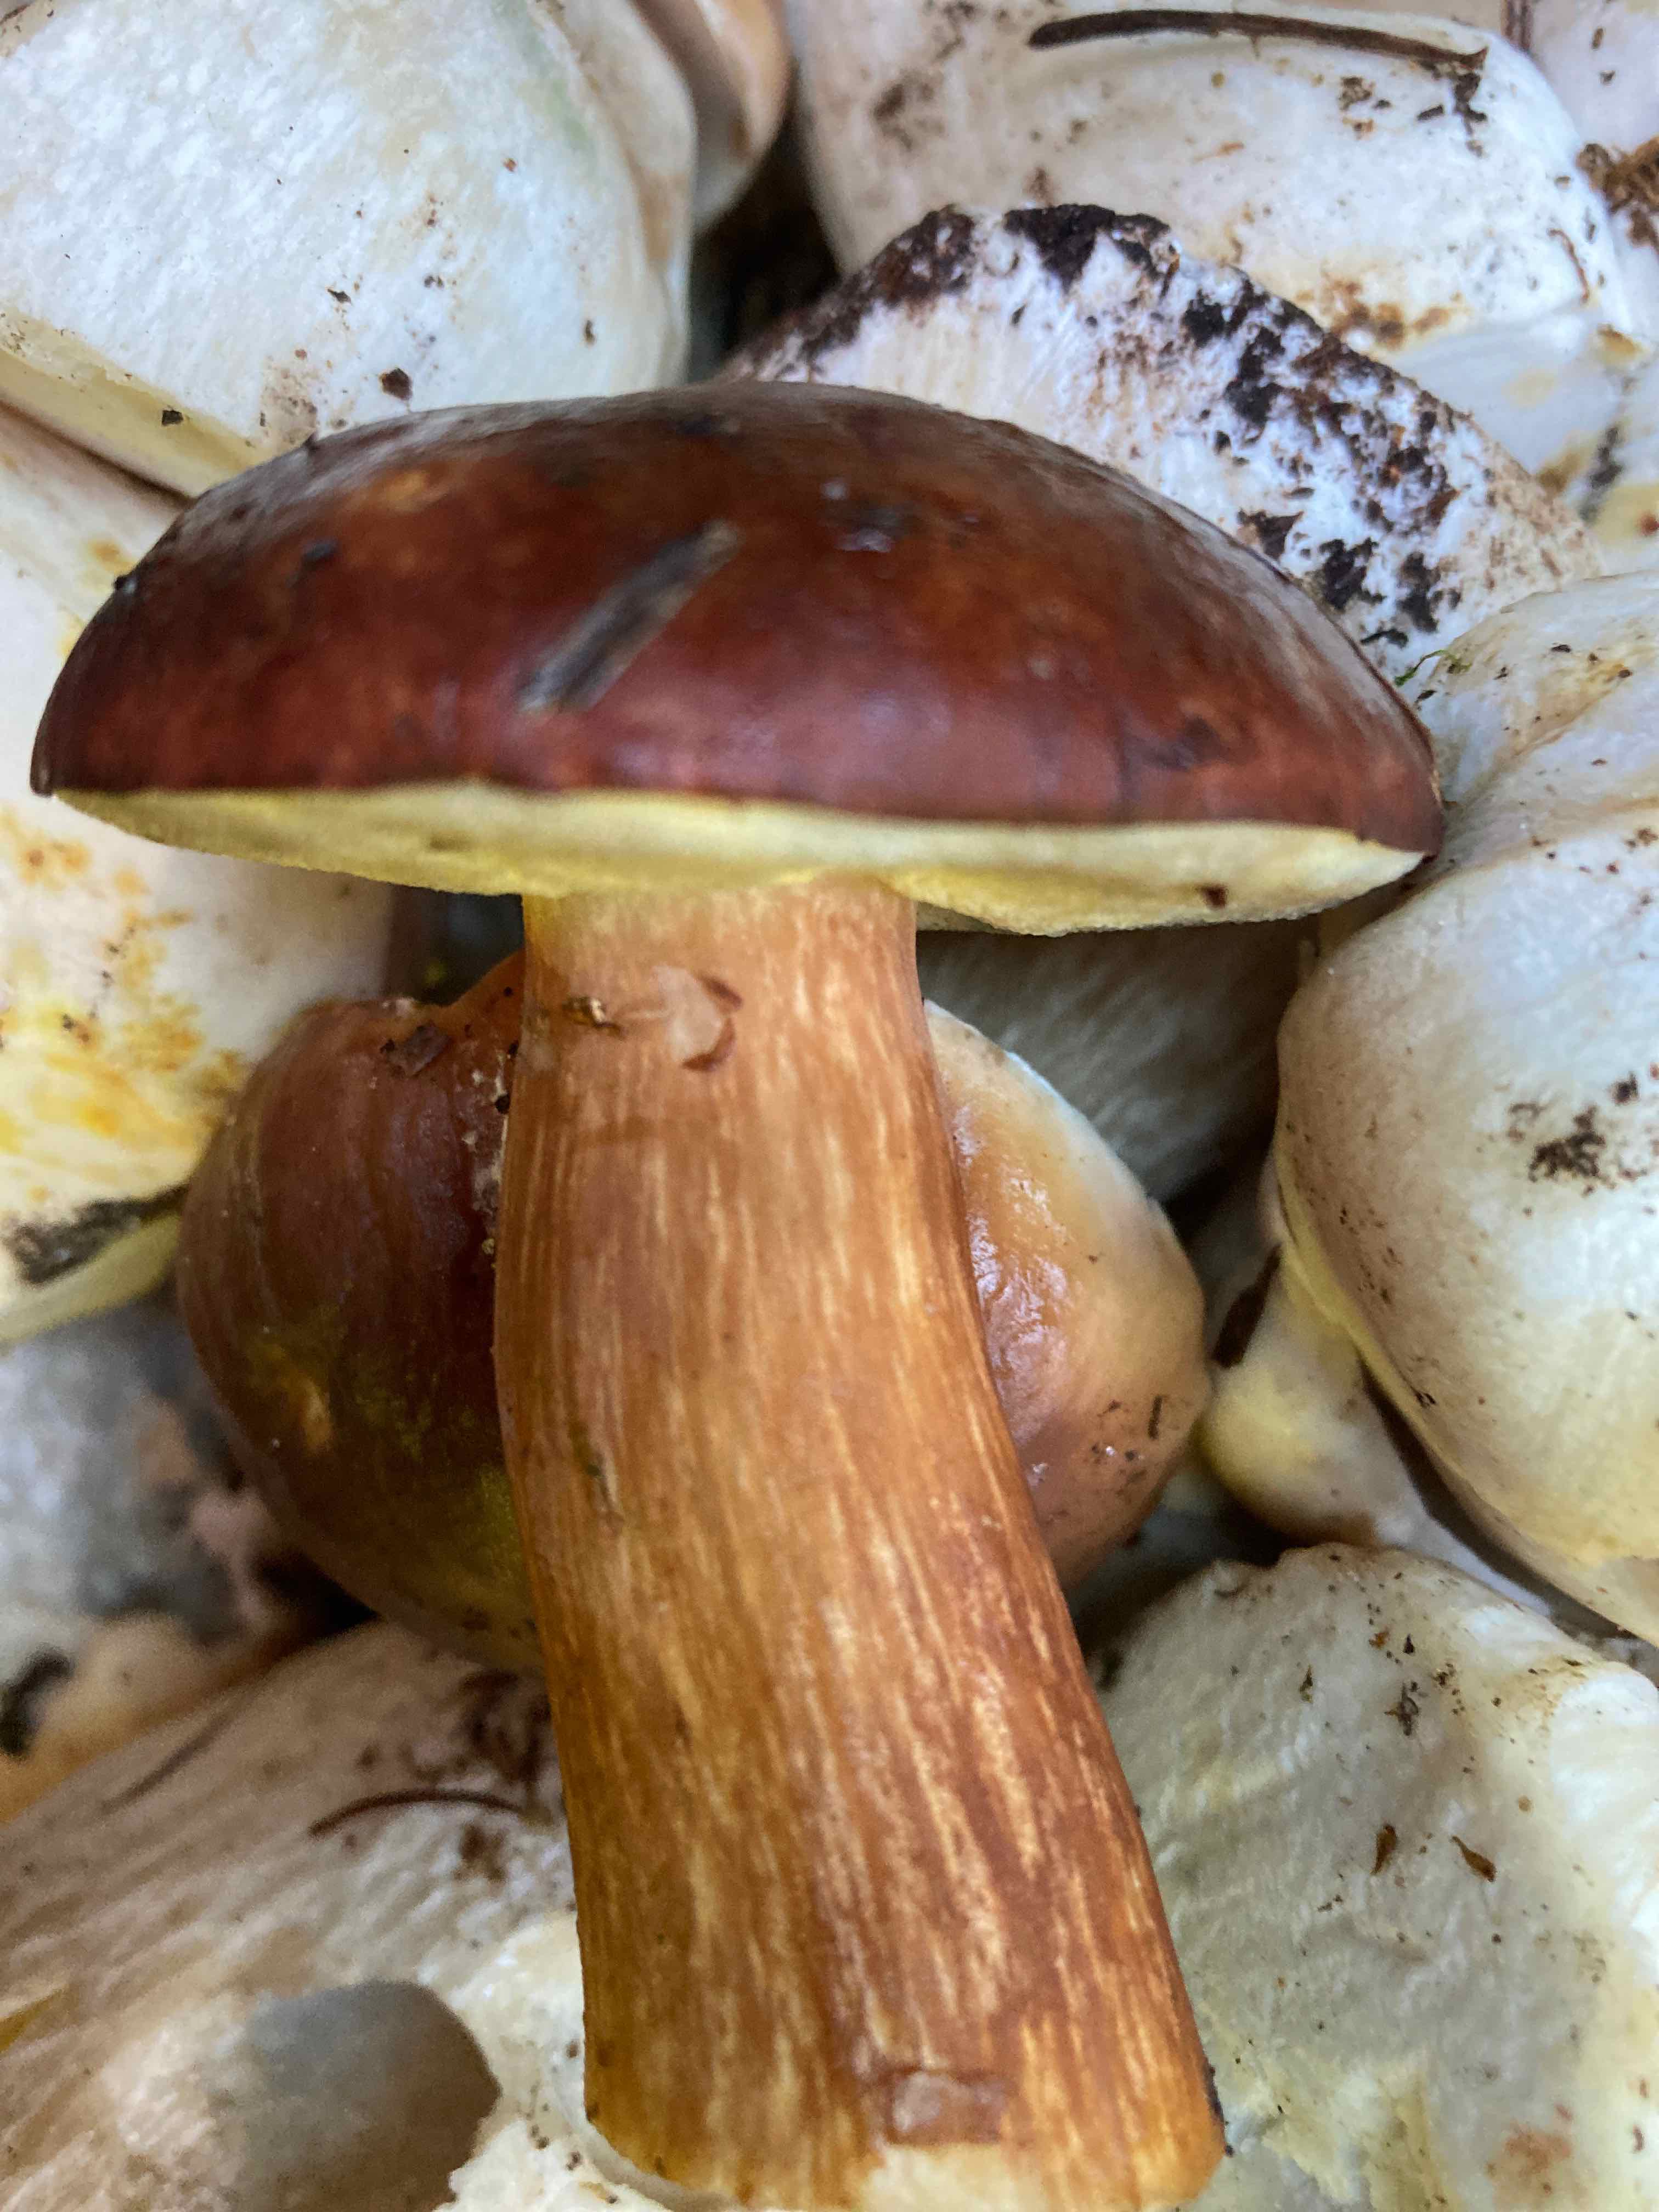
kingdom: Fungi
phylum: Basidiomycota
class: Agaricomycetes
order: Boletales
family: Boletaceae
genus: Imleria
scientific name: Imleria badia
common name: brunstokket rørhat
